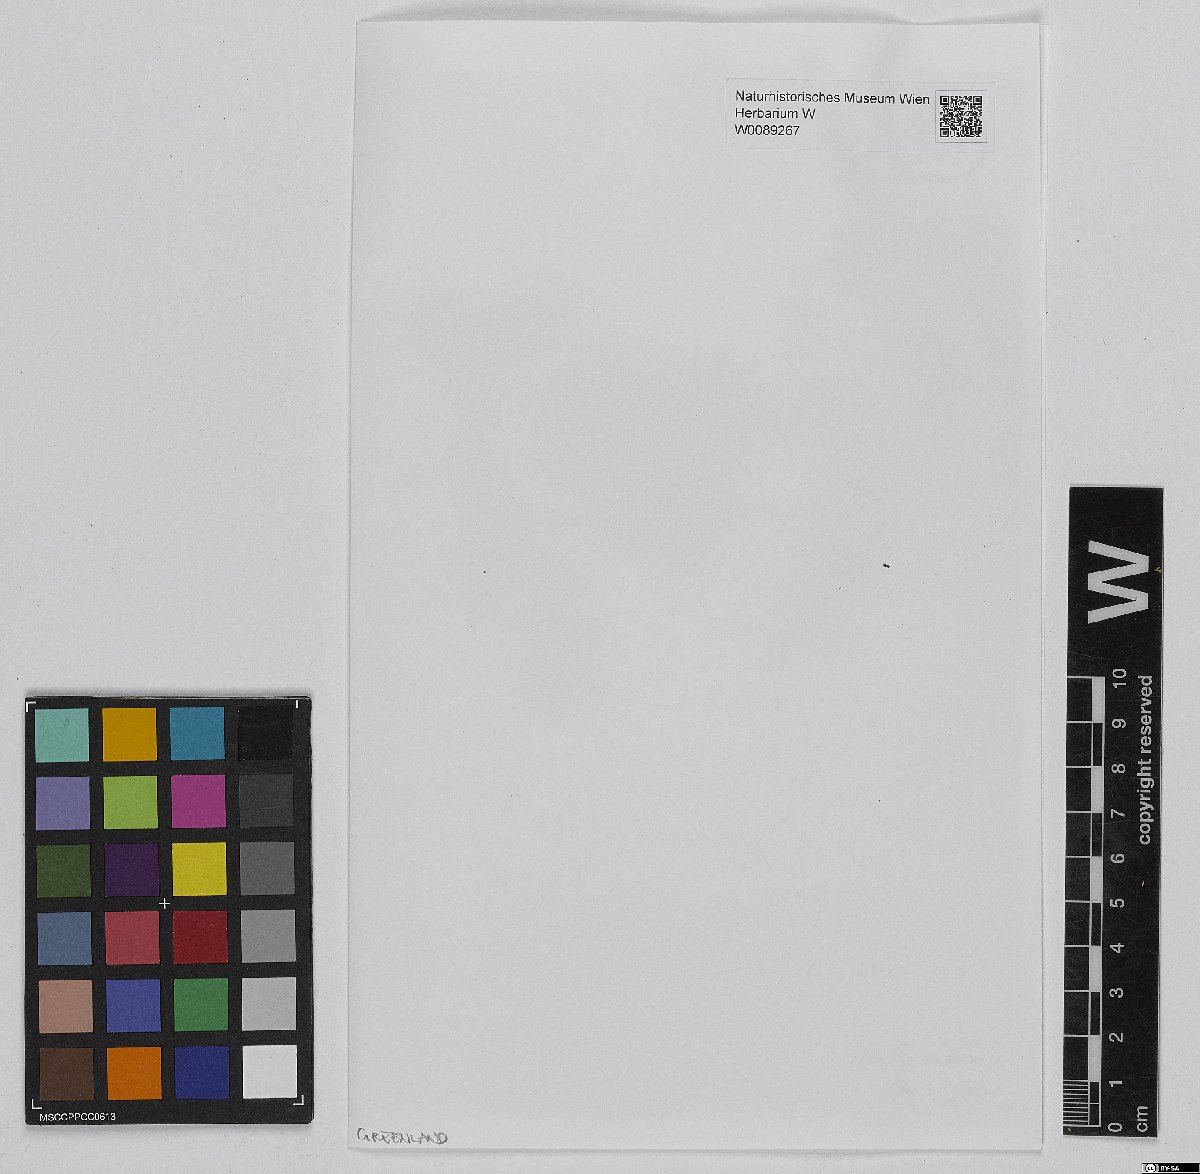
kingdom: Plantae
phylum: Bryophyta
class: Sphagnopsida
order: Sphagnales
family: Sphagnaceae
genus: Sphagnum
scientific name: Sphagnum lindbergii
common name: Lindberg's peat moss
